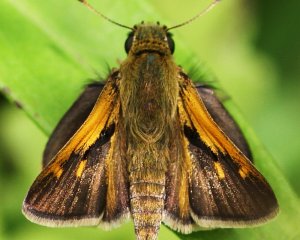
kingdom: Animalia
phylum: Arthropoda
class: Insecta
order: Lepidoptera
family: Hesperiidae
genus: Polites
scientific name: Polites themistocles
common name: Tawny-edged Skipper
